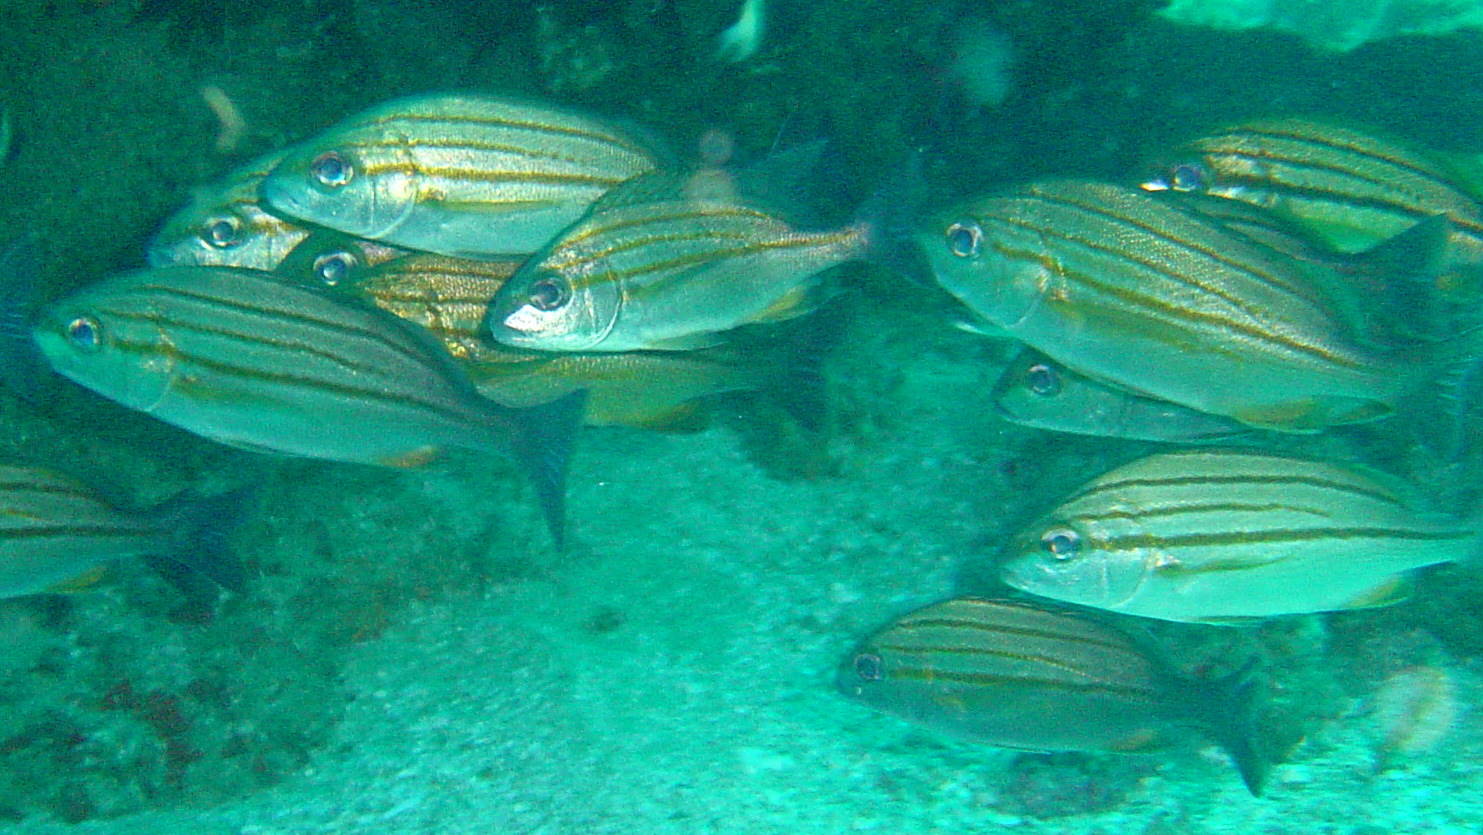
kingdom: Animalia
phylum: Chordata
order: Perciformes
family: Haemulidae
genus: Pomadasys
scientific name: Pomadasys striatus
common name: Striped grunter
